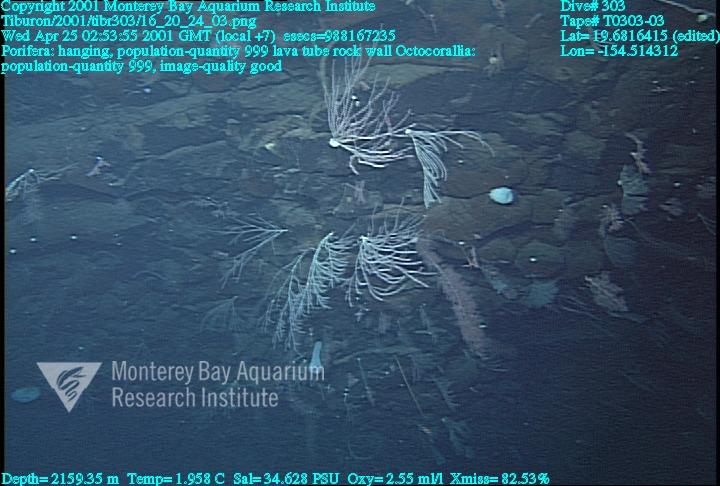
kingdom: Animalia
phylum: Porifera
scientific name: Porifera
